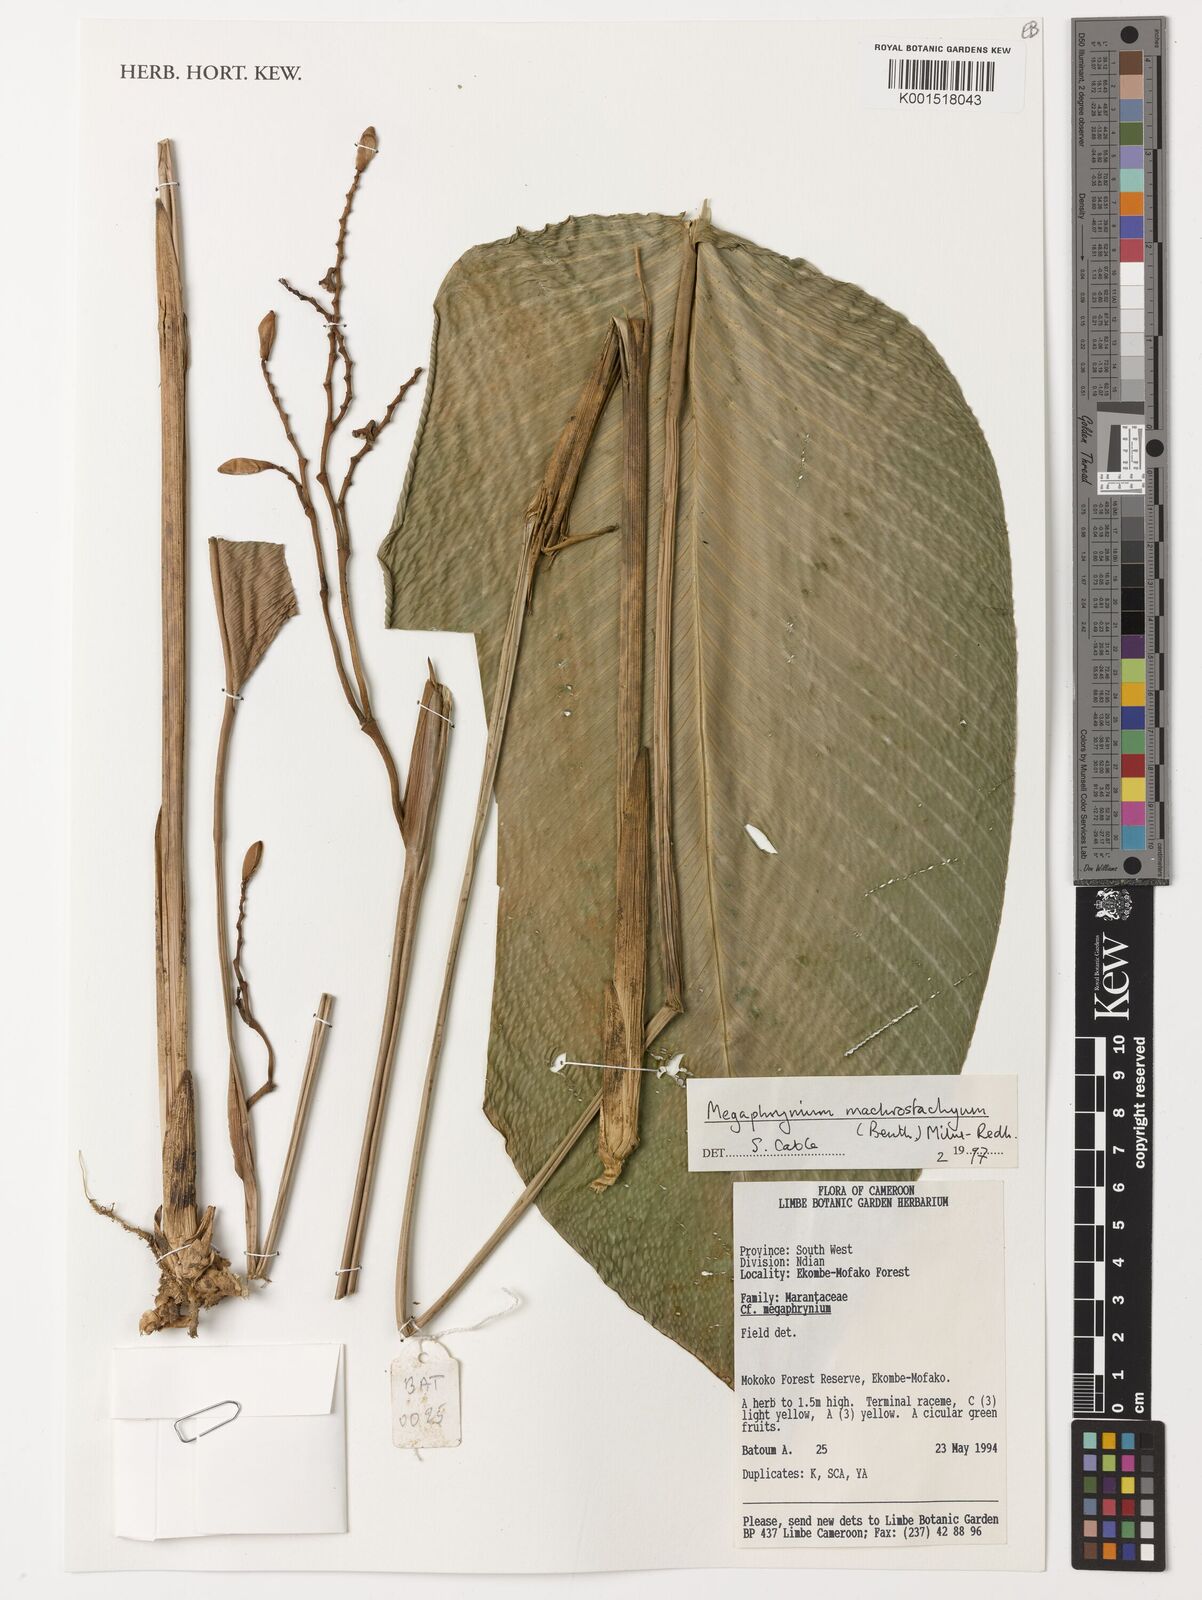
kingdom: Plantae
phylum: Tracheophyta
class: Liliopsida
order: Zingiberales
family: Marantaceae
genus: Megaphrynium
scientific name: Megaphrynium macrostachyum
